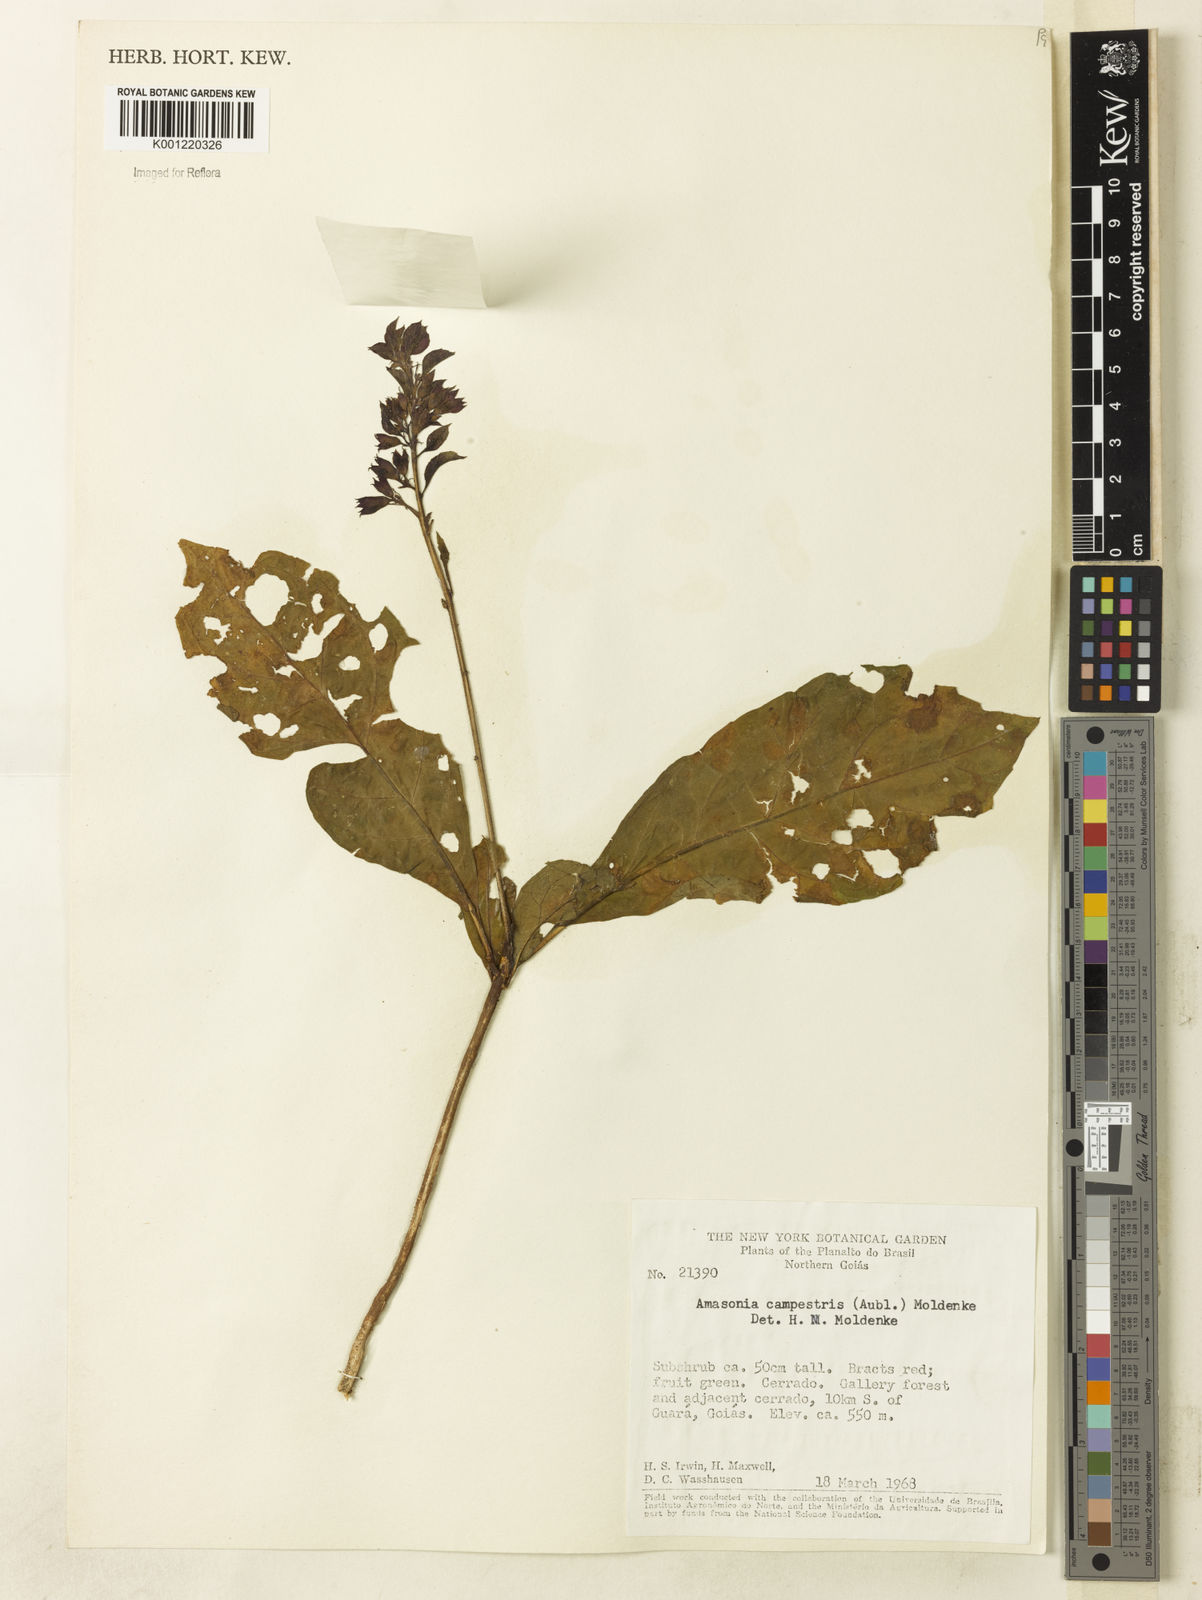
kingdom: Plantae
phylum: Tracheophyta
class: Magnoliopsida
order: Lamiales
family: Lamiaceae
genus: Amasonia
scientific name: Amasonia campestris
